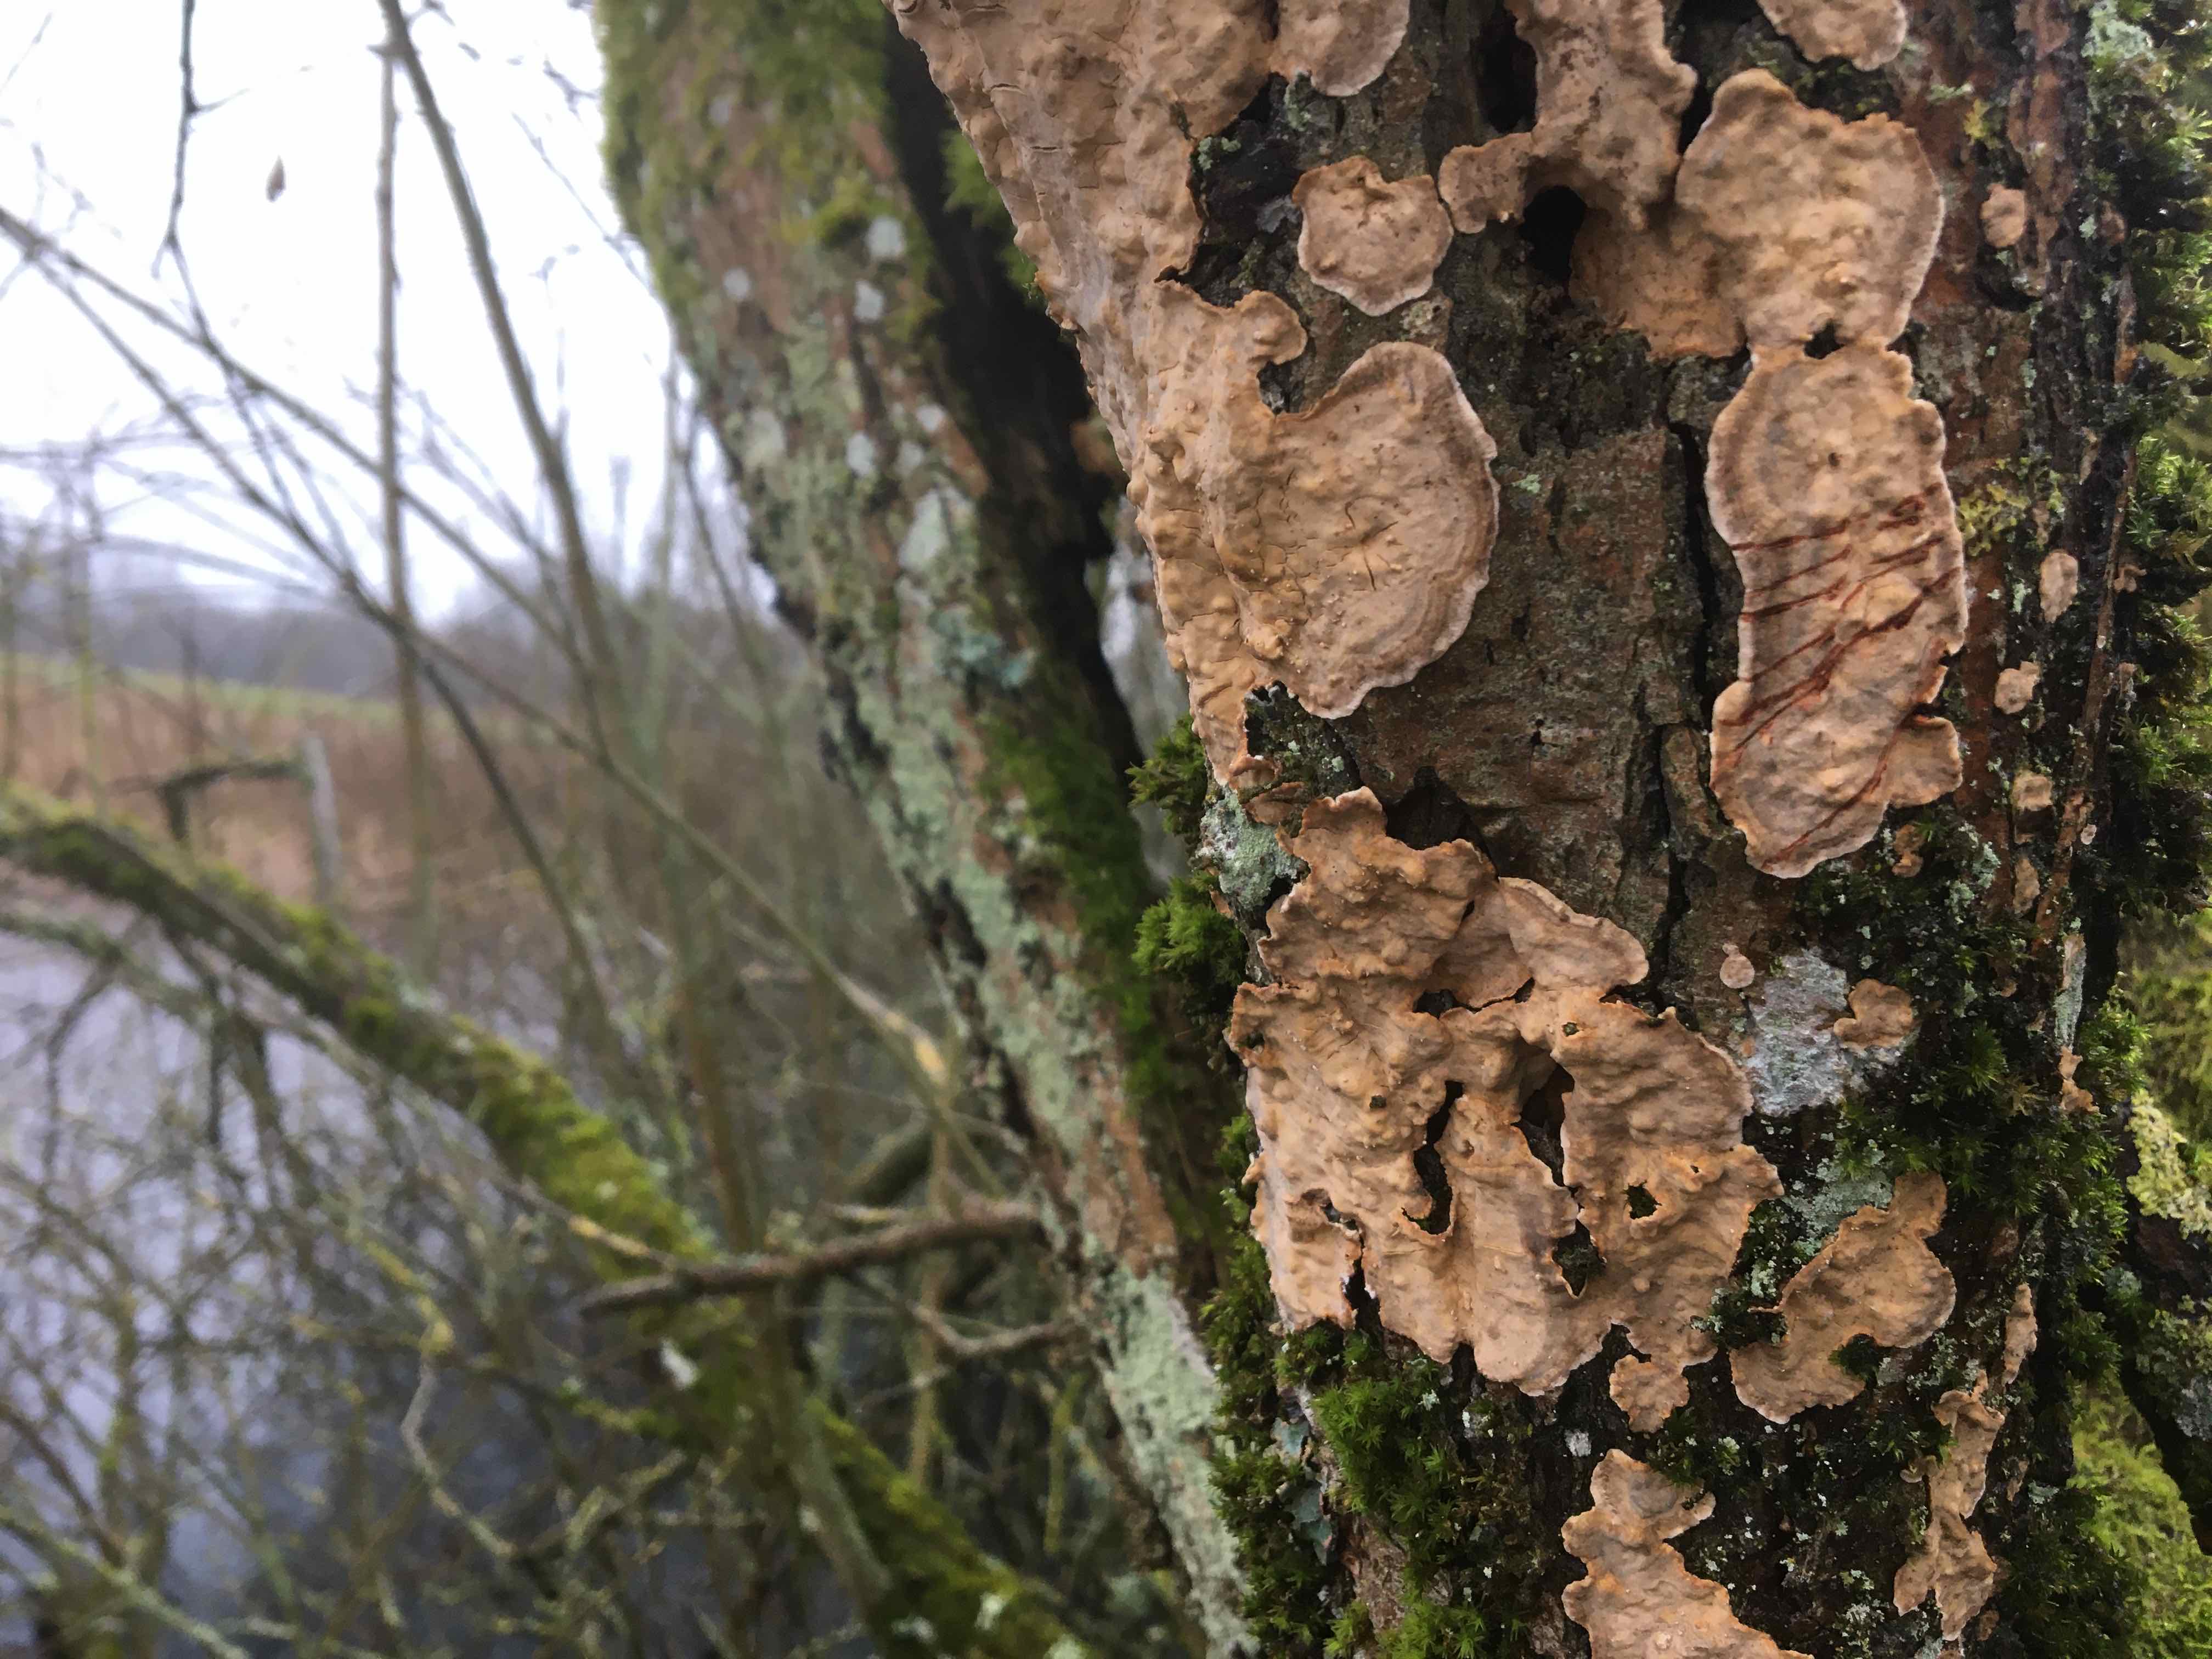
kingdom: Fungi
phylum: Basidiomycota
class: Agaricomycetes
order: Russulales
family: Stereaceae
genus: Stereum
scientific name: Stereum rugosum
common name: rynket lædersvamp
